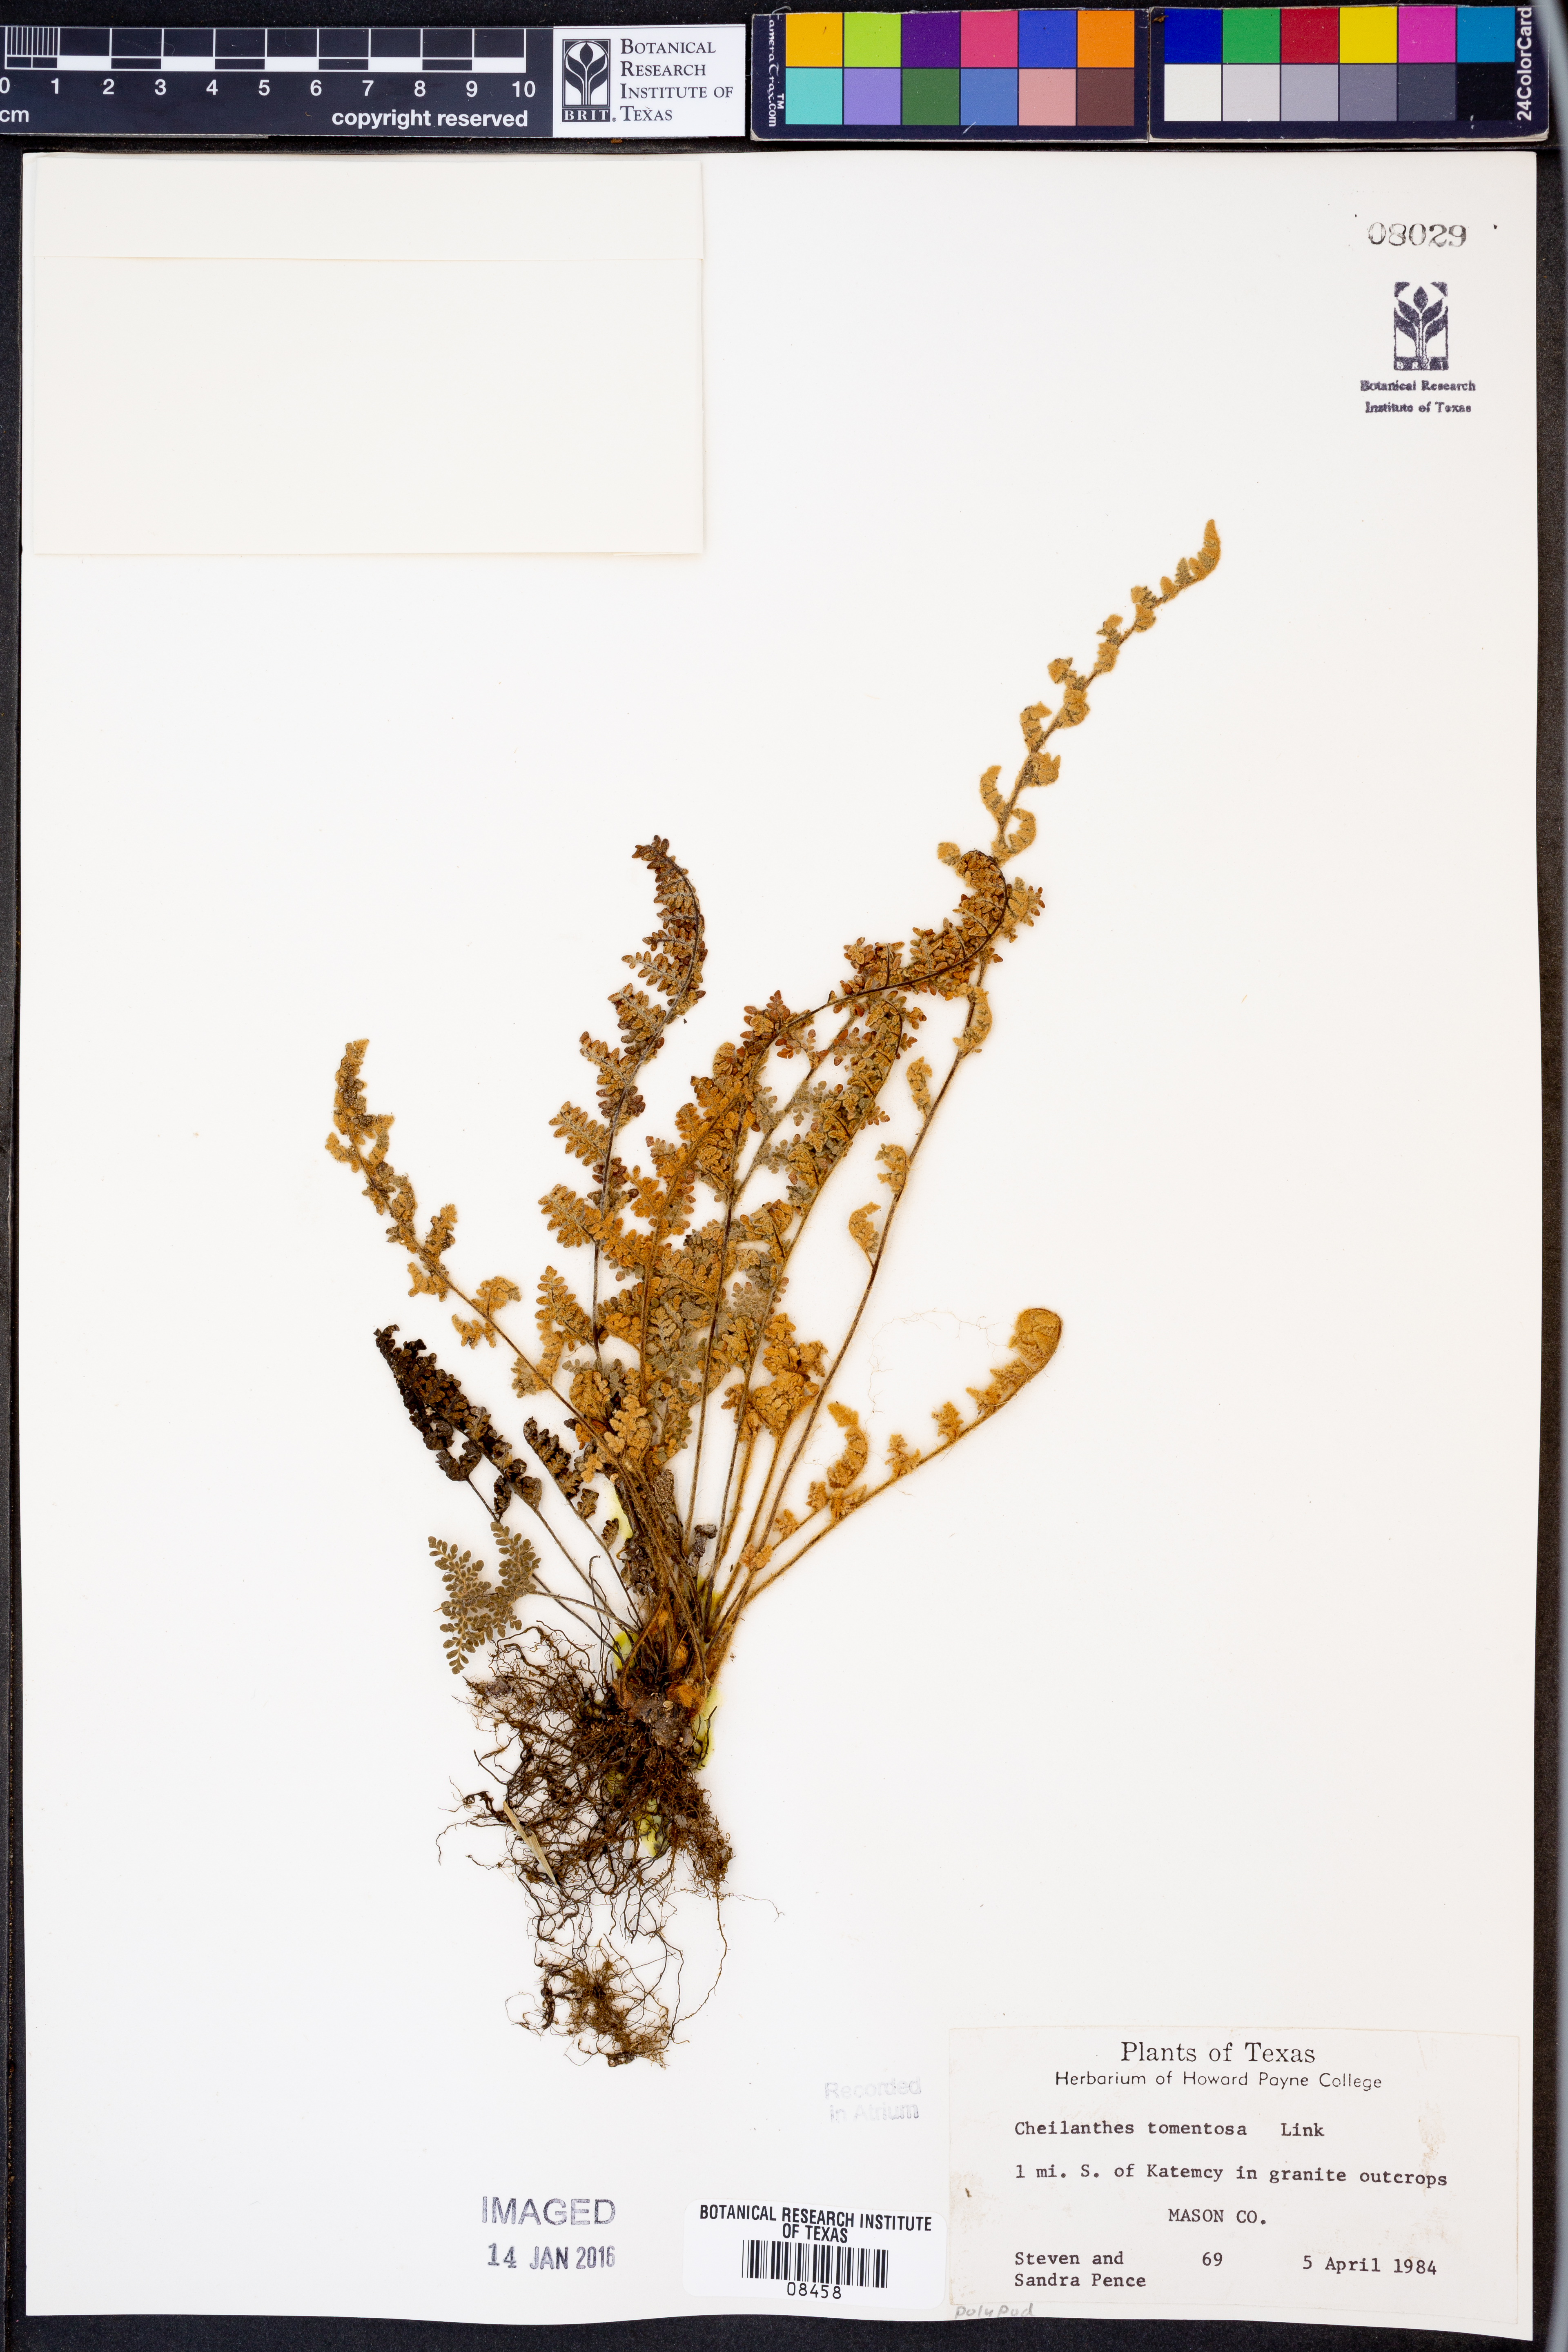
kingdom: Plantae
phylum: Tracheophyta
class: Polypodiopsida
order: Polypodiales
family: Pteridaceae
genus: Myriopteris
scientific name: Myriopteris tomentosa
